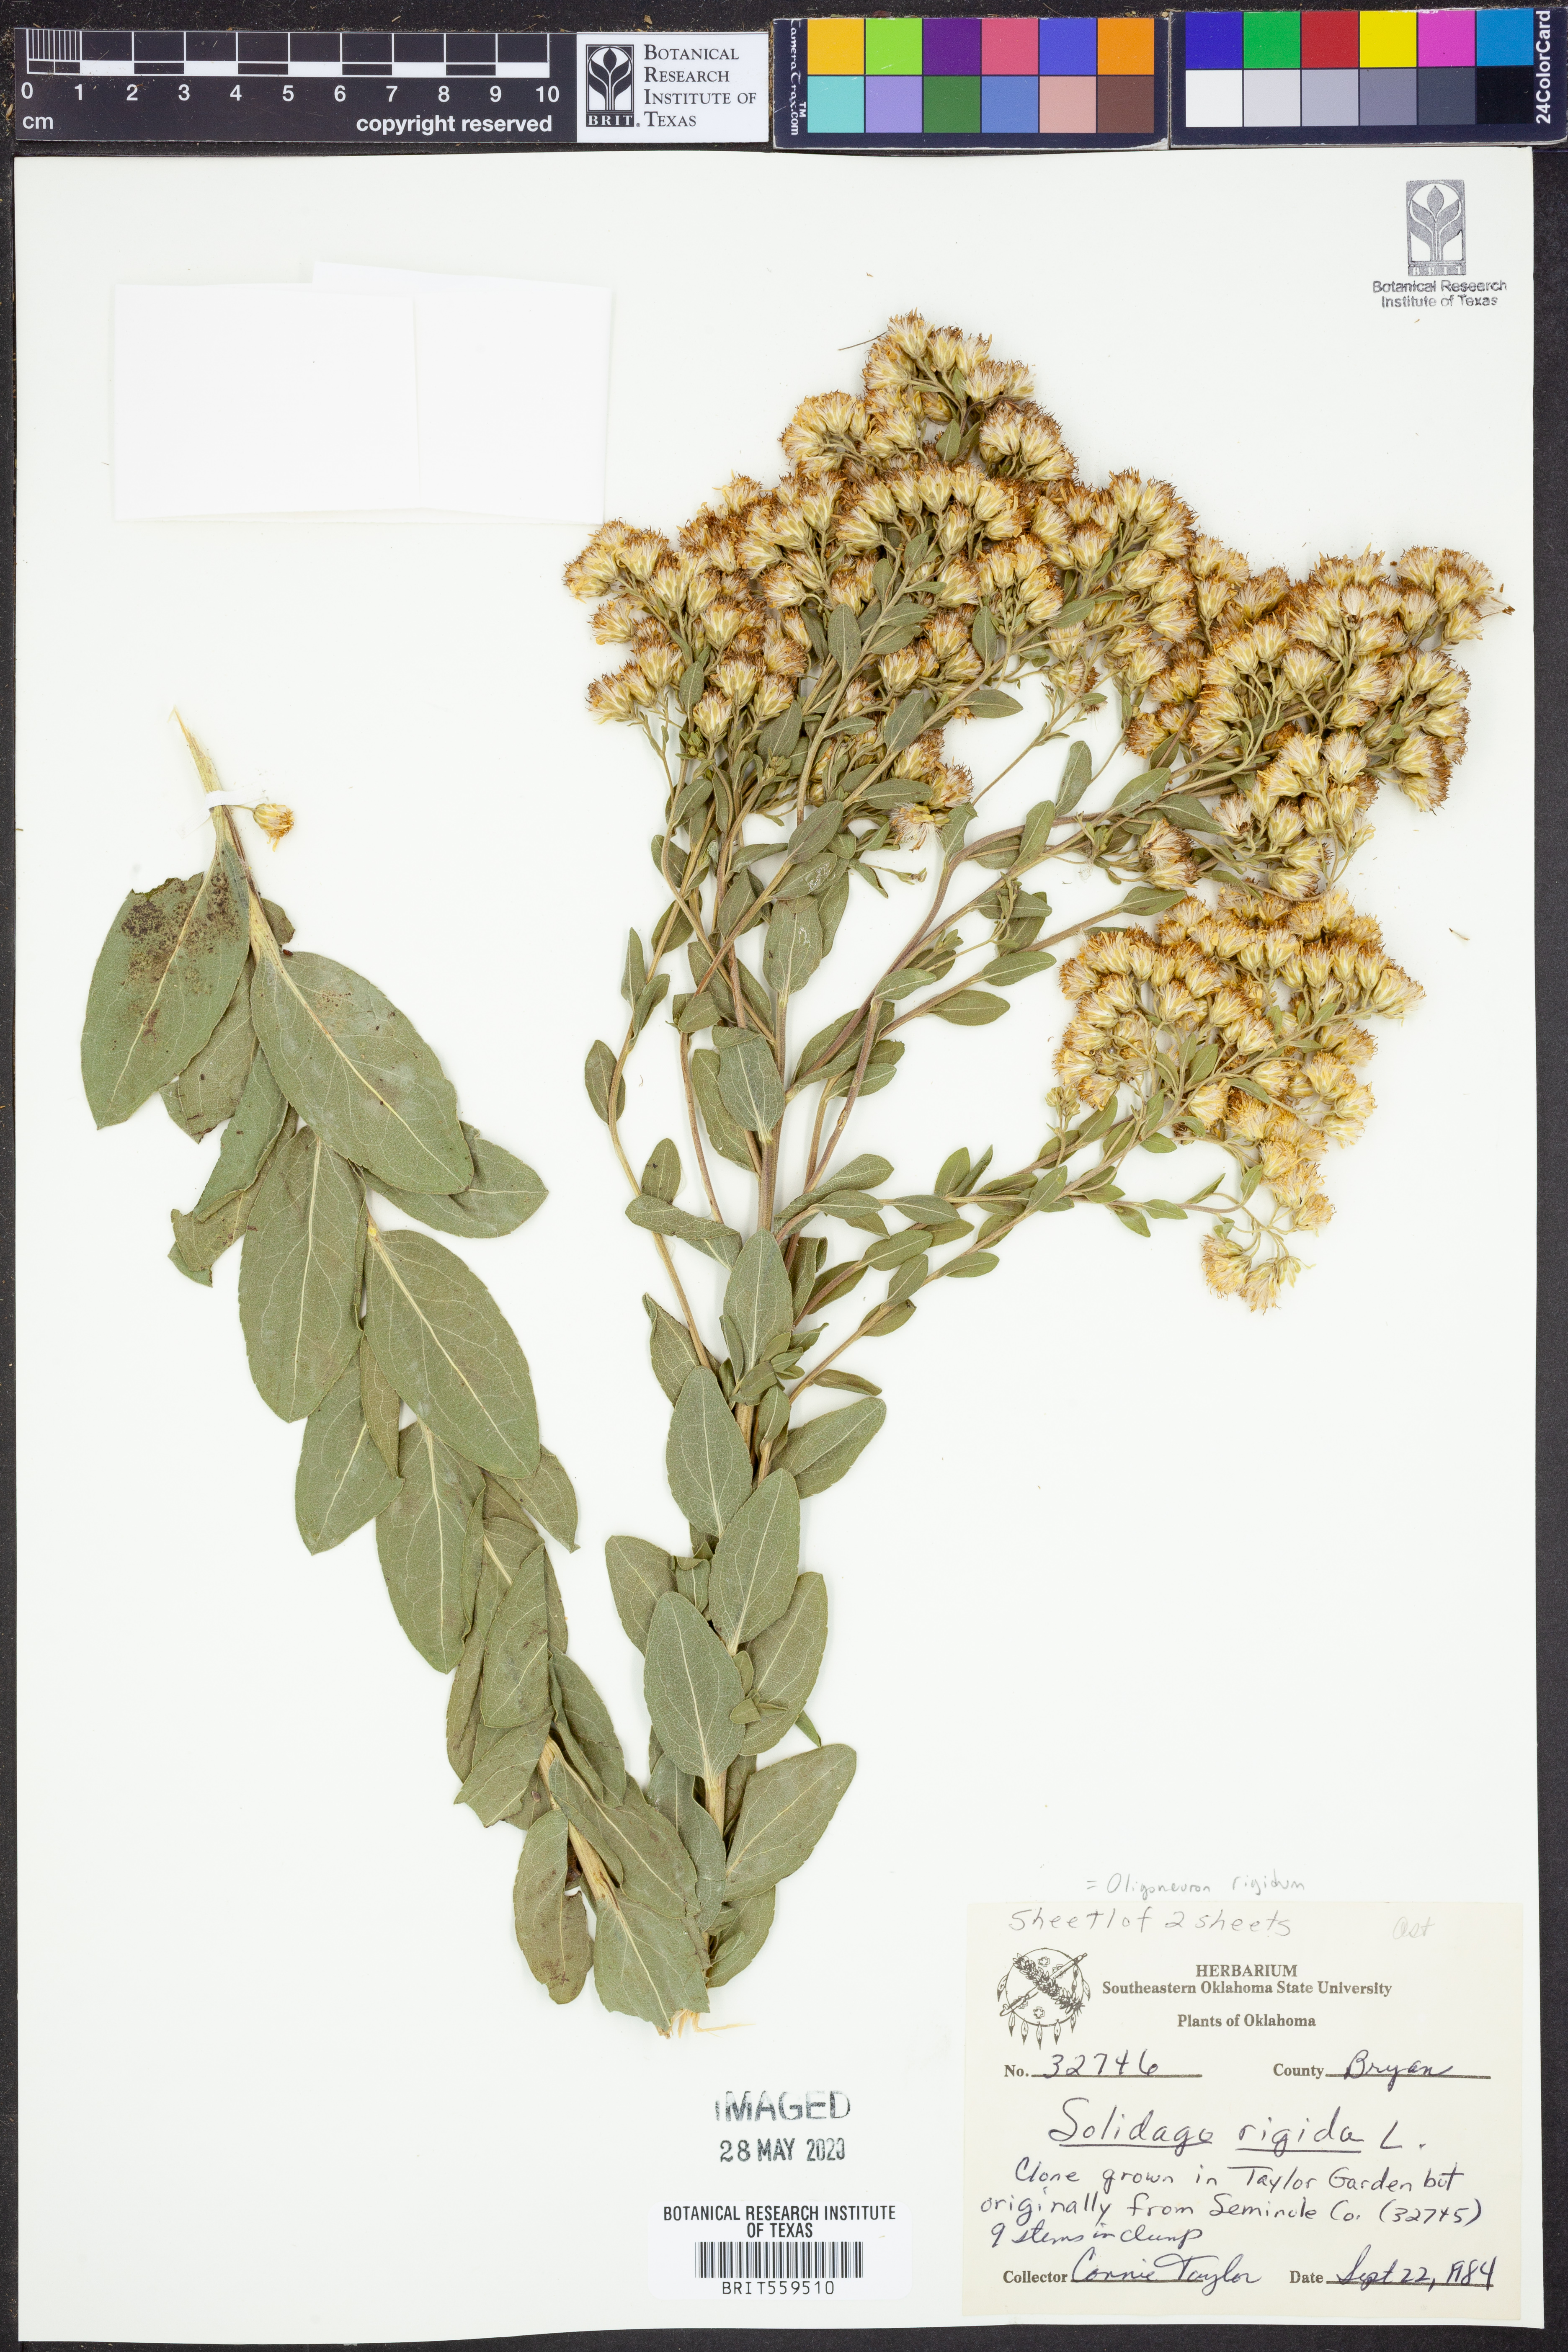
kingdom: Plantae
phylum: Tracheophyta
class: Magnoliopsida
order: Asterales
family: Asteraceae
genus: Solidago
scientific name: Solidago rigida
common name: Rigid goldenrod
